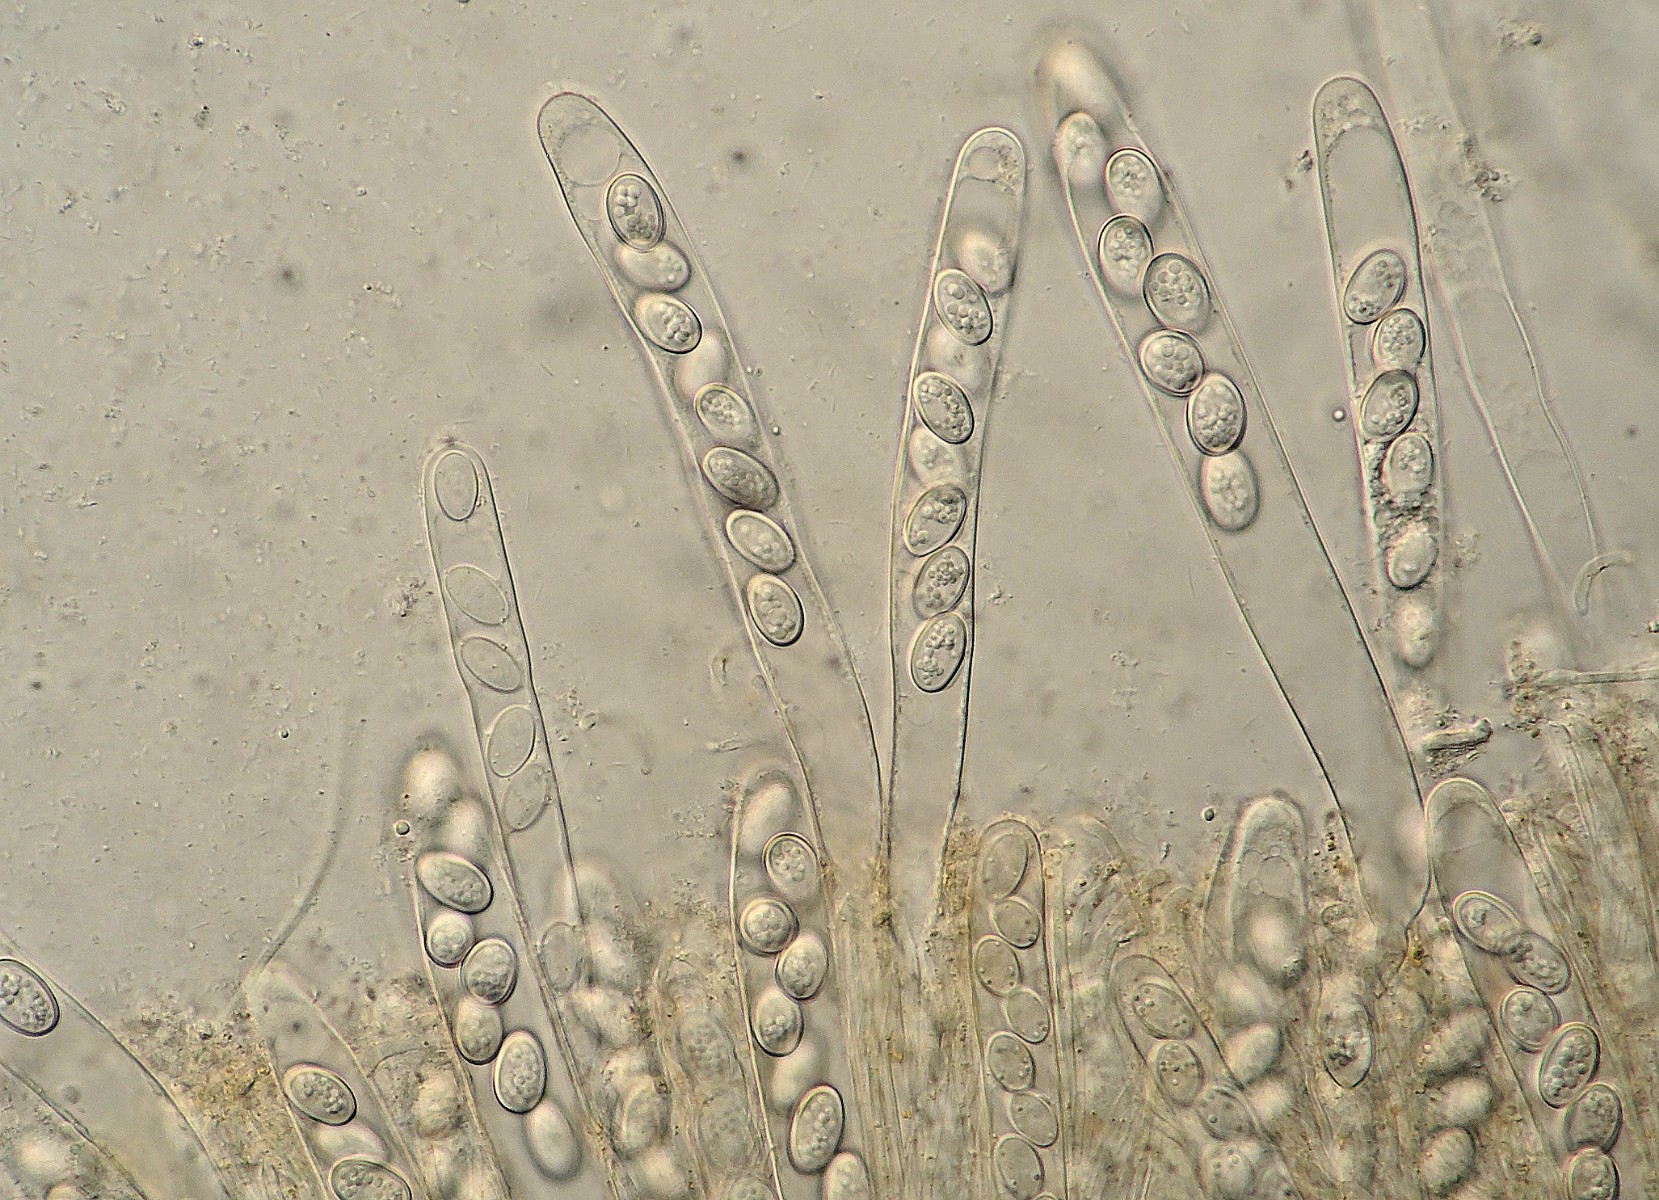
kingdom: Fungi
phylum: Ascomycota
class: Pezizomycetes
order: Pezizales
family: Pyronemataceae
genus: Boubovia
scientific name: Boubovia ovalispora
